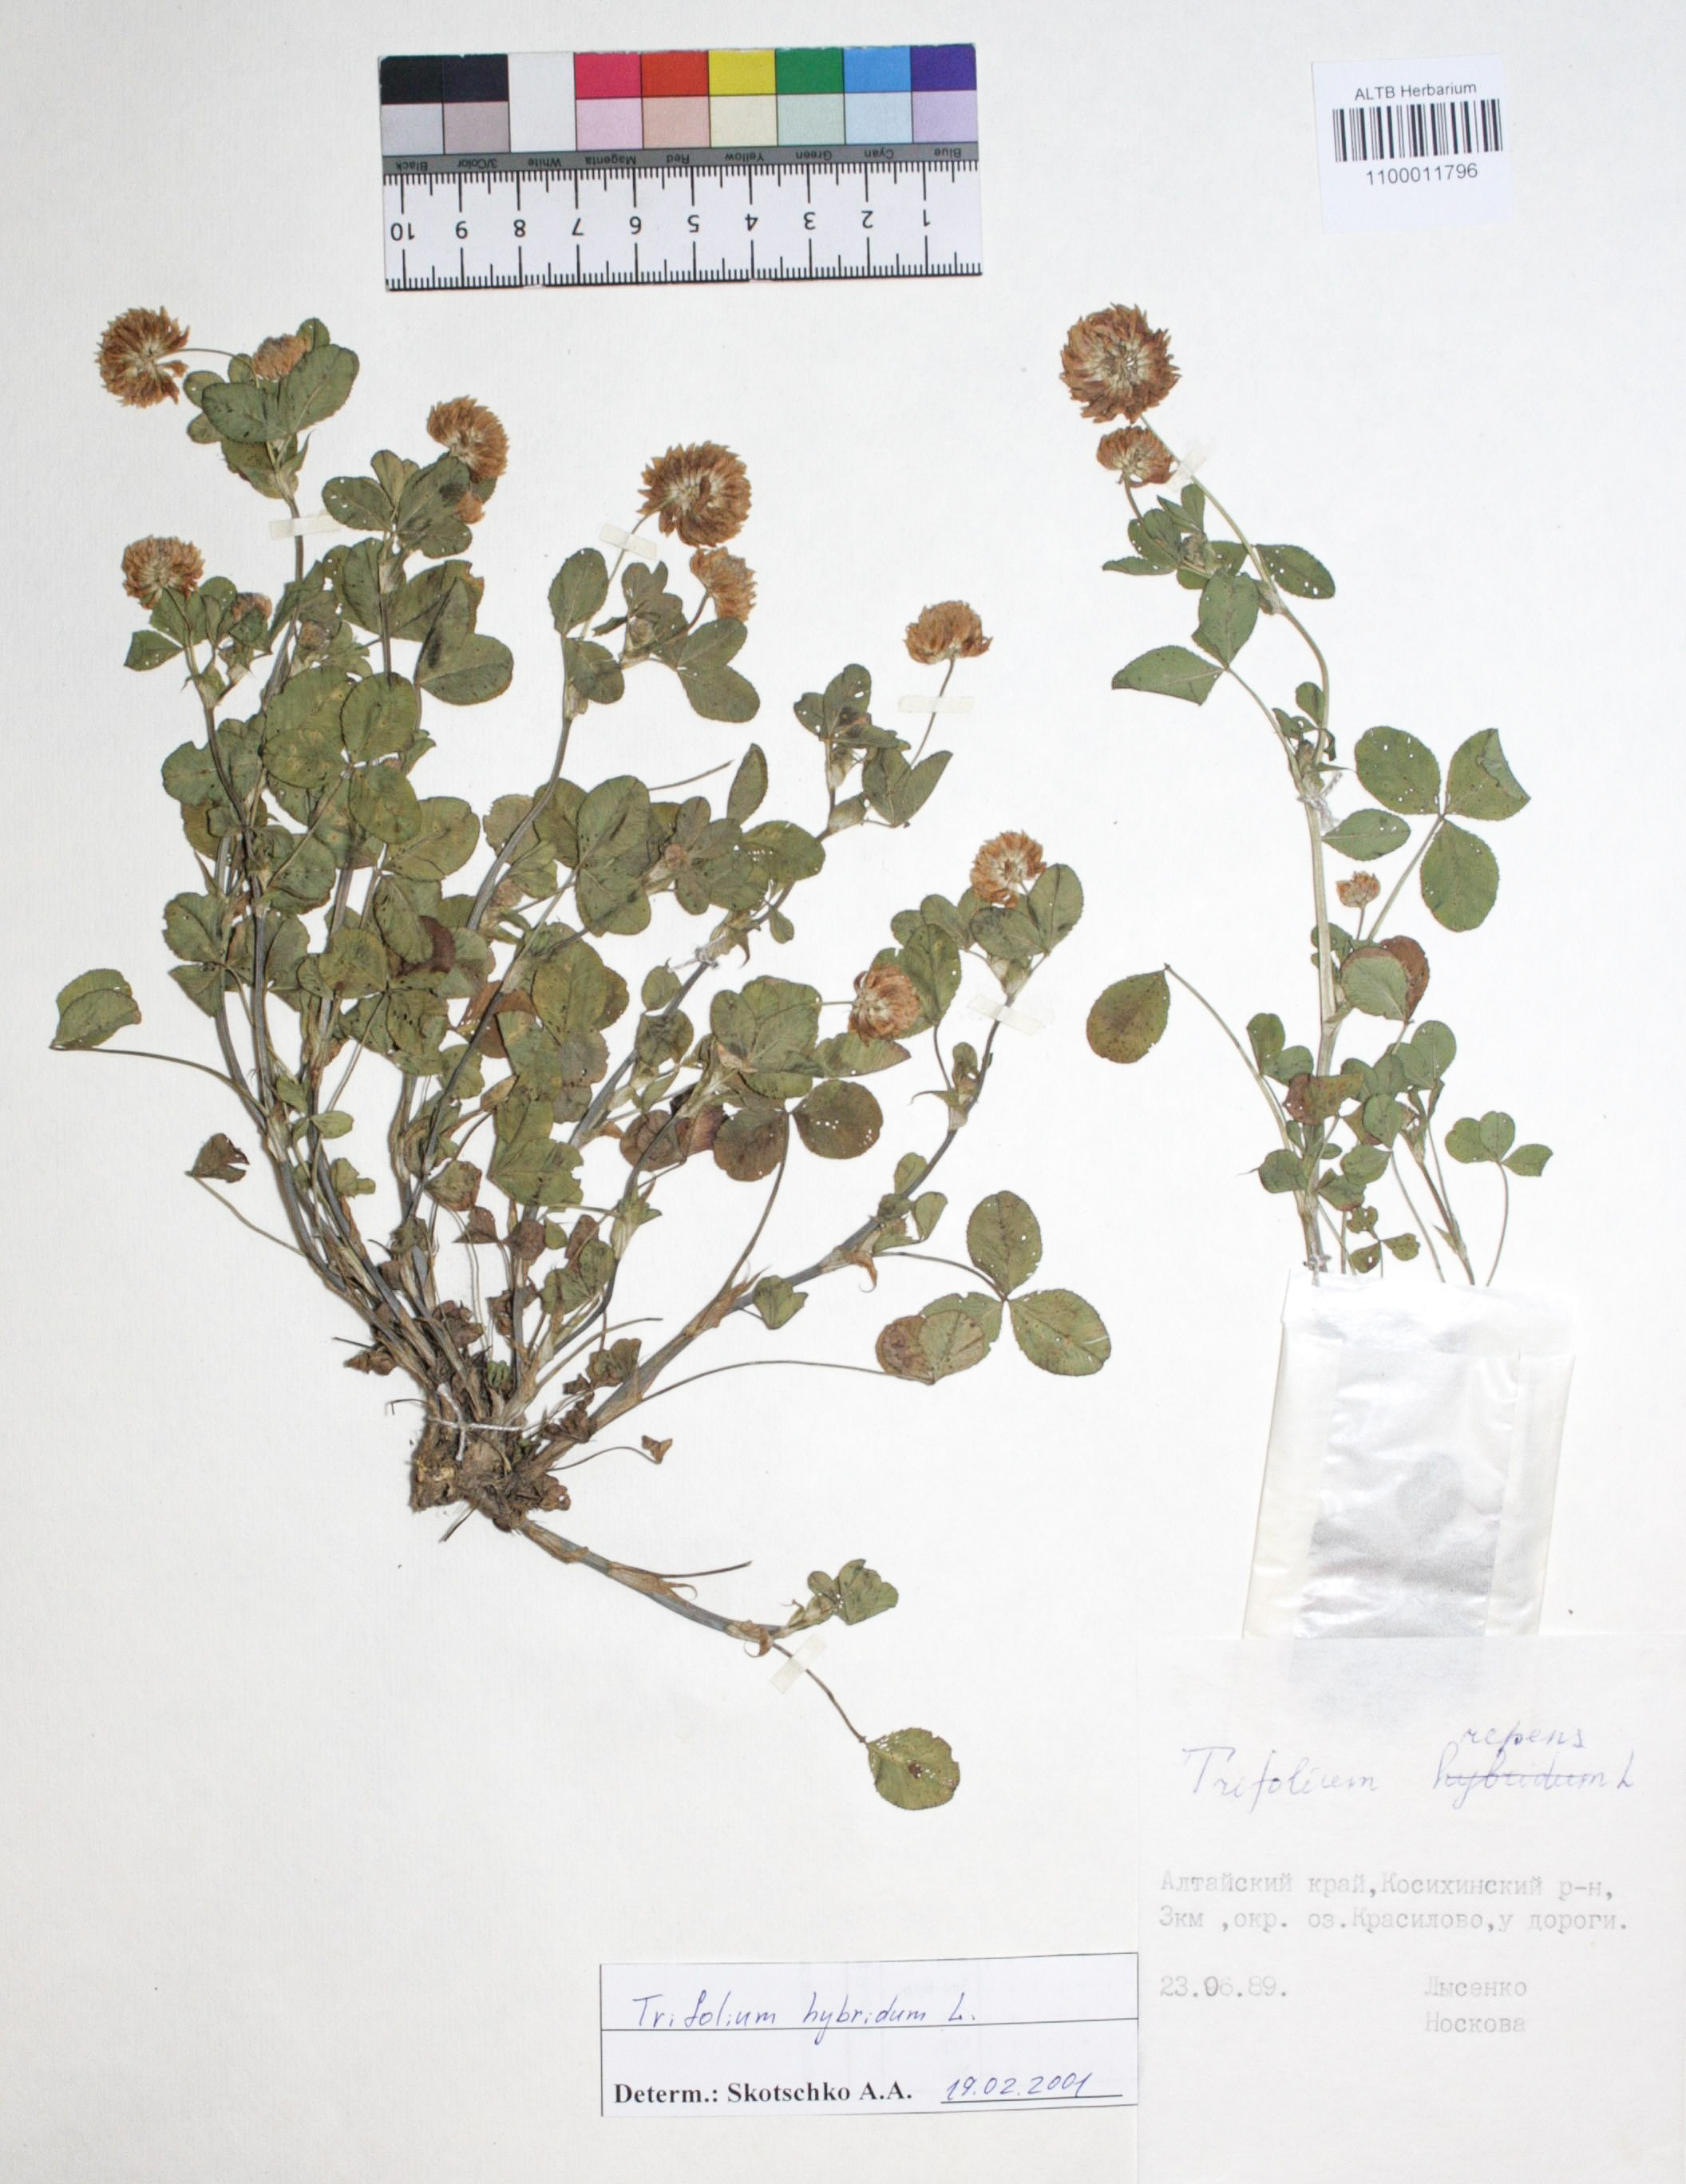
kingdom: Plantae
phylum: Tracheophyta
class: Magnoliopsida
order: Fabales
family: Fabaceae
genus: Trifolium
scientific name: Trifolium hybridum
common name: Alsike clover
